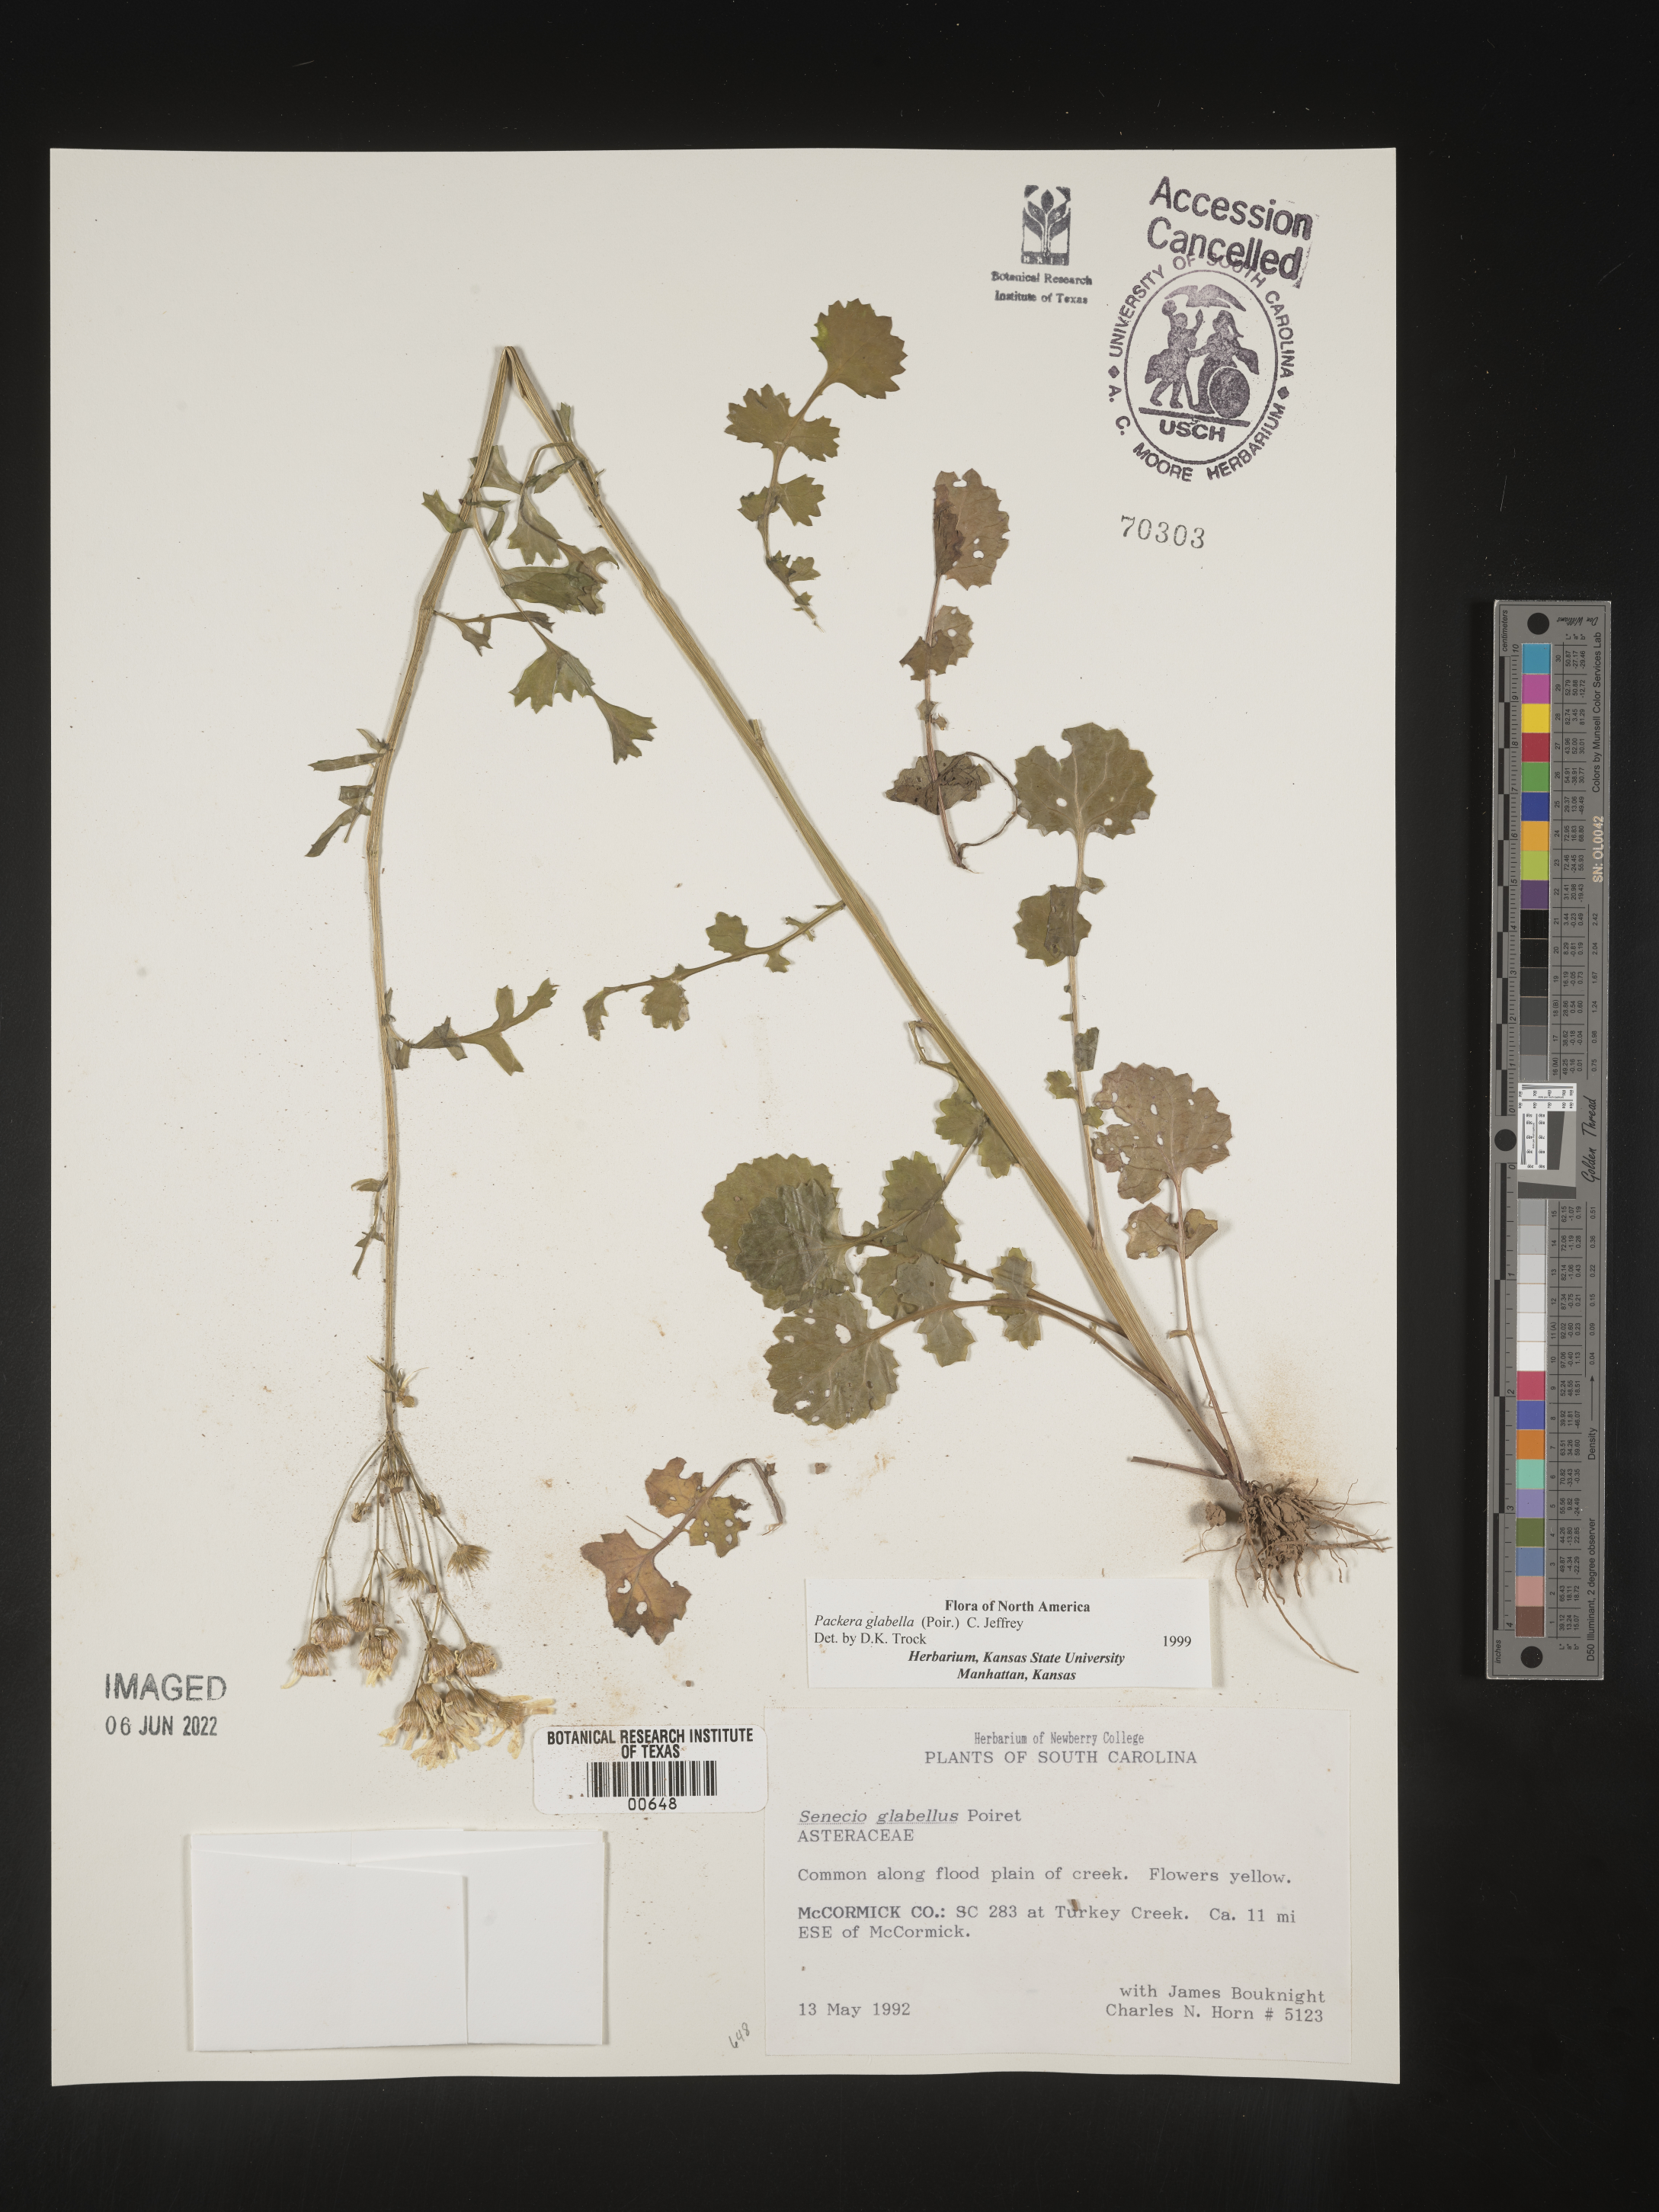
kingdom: Plantae
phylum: Tracheophyta
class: Magnoliopsida
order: Asterales
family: Asteraceae
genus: Packera
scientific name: Packera glabella
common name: Butterweed
